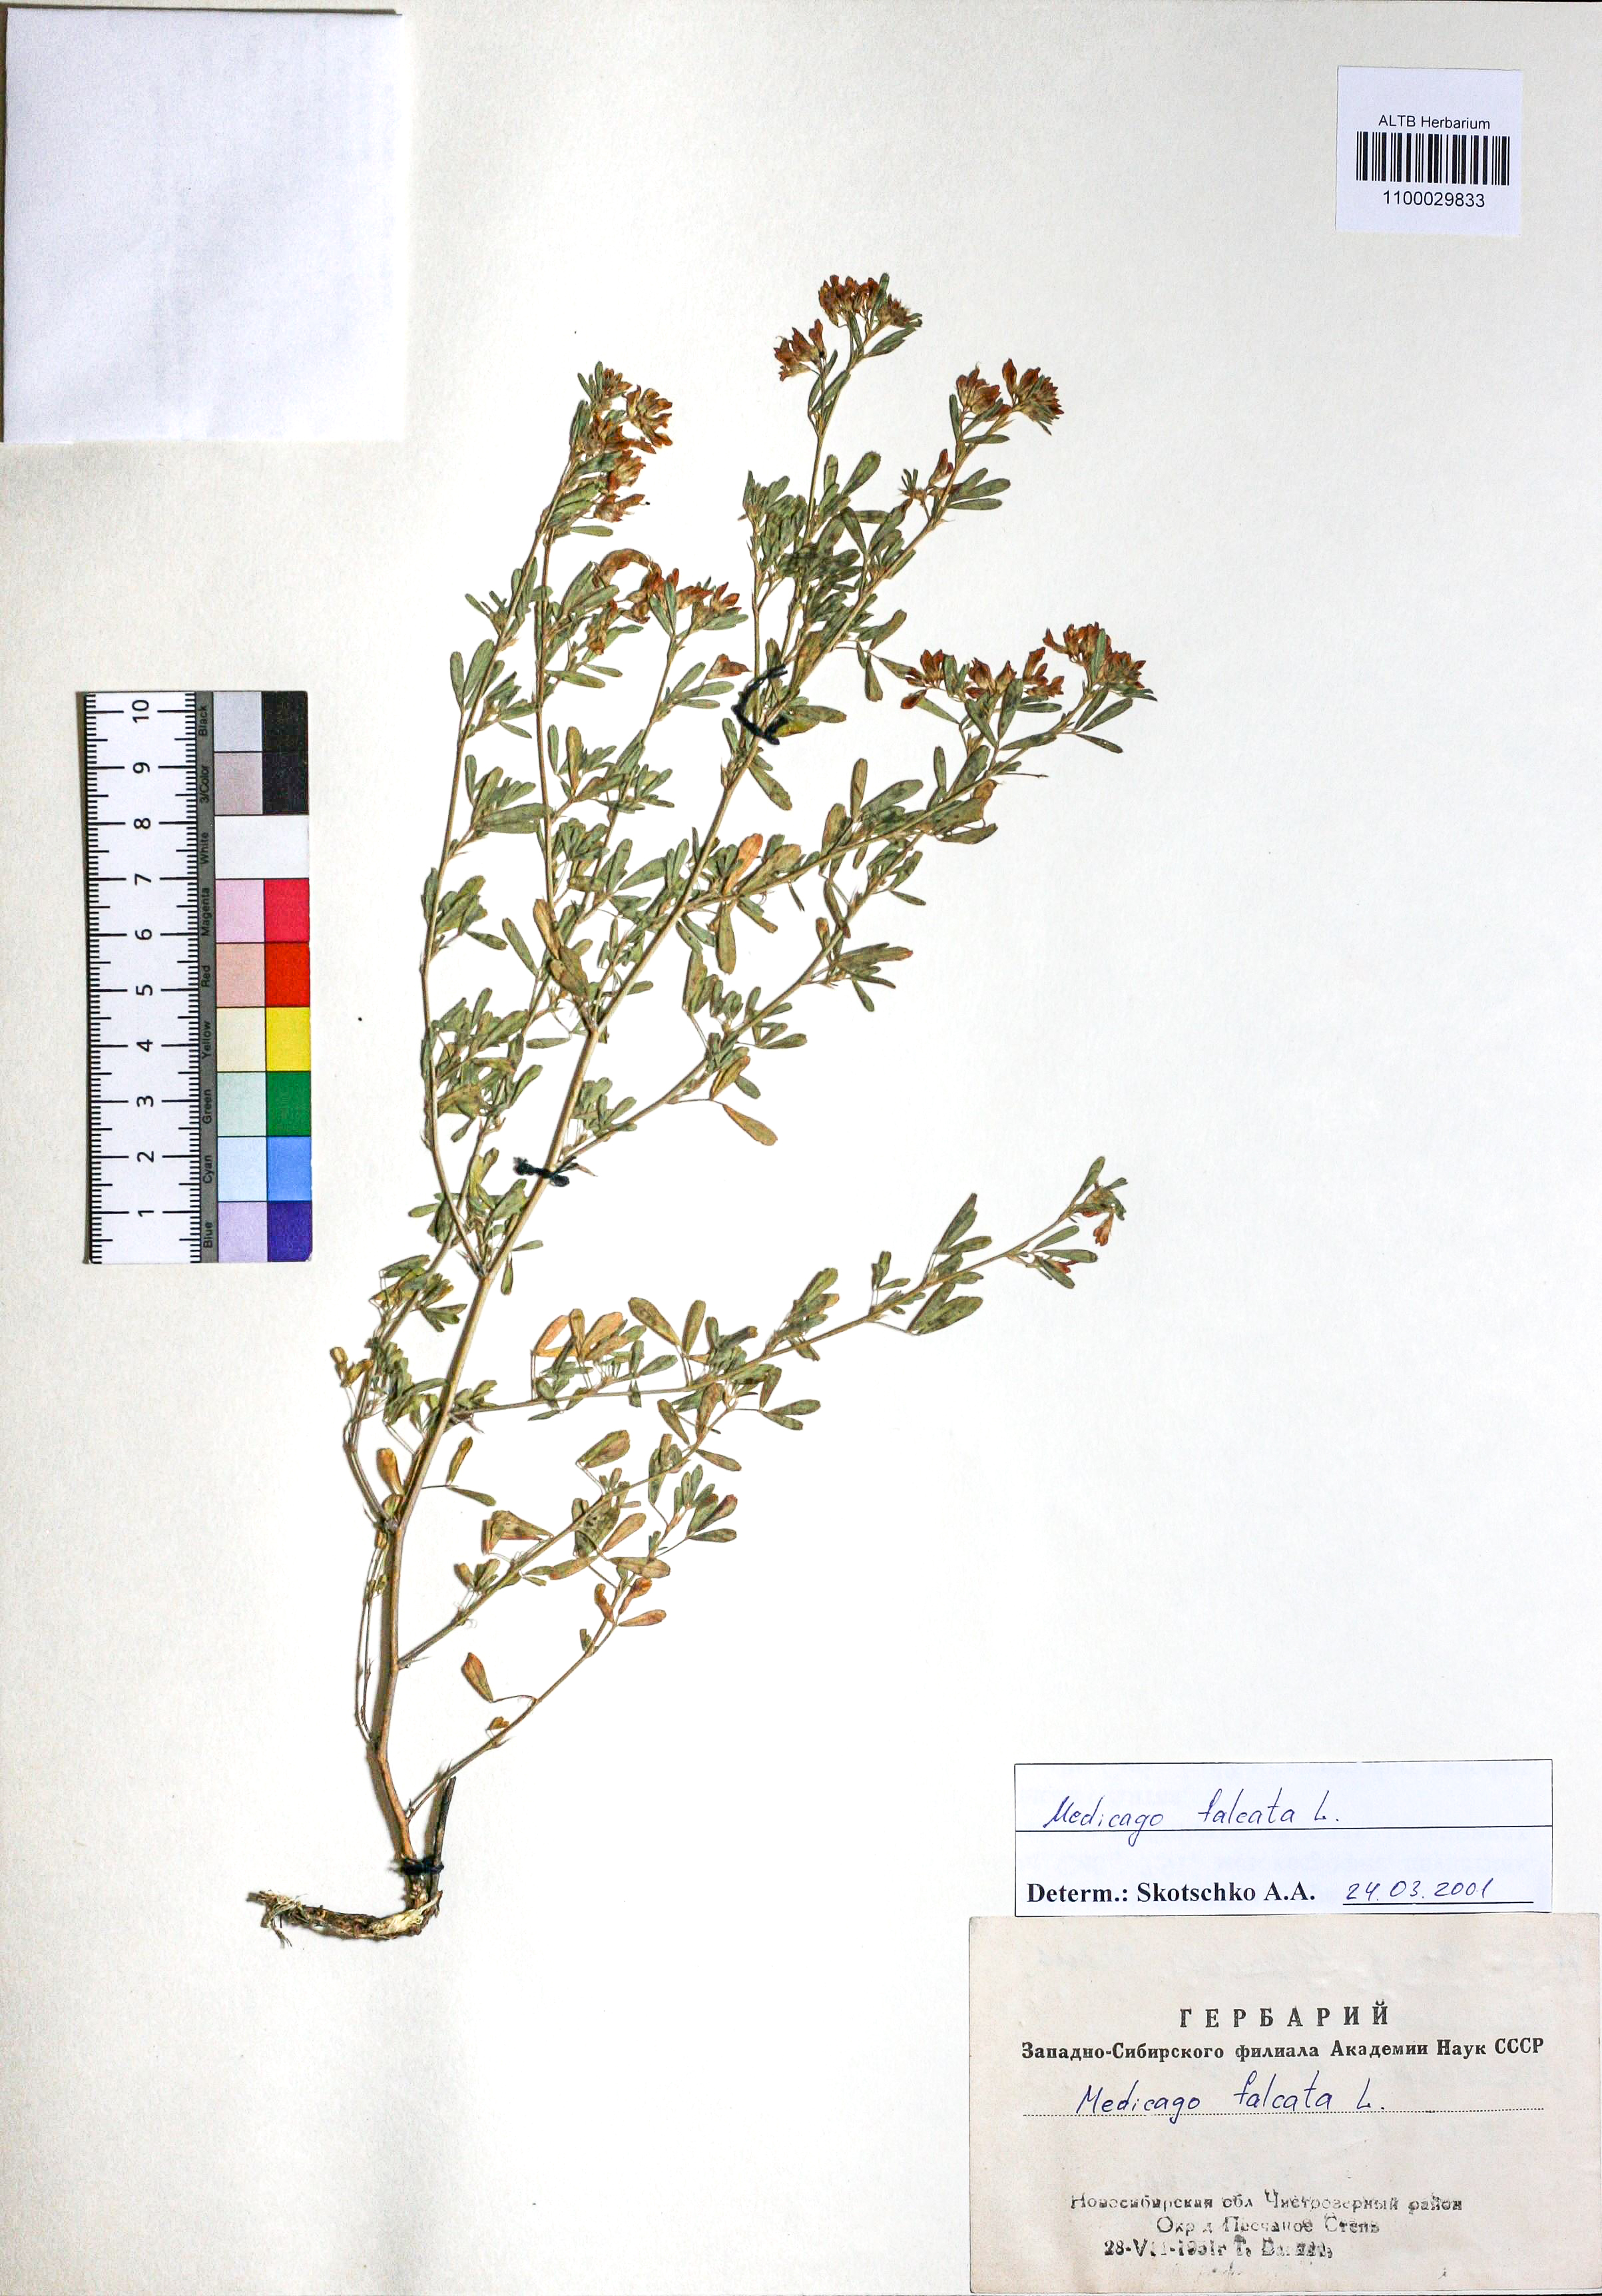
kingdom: Plantae
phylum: Tracheophyta
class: Magnoliopsida
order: Fabales
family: Fabaceae
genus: Medicago
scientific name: Medicago falcata
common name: Sickle medick
